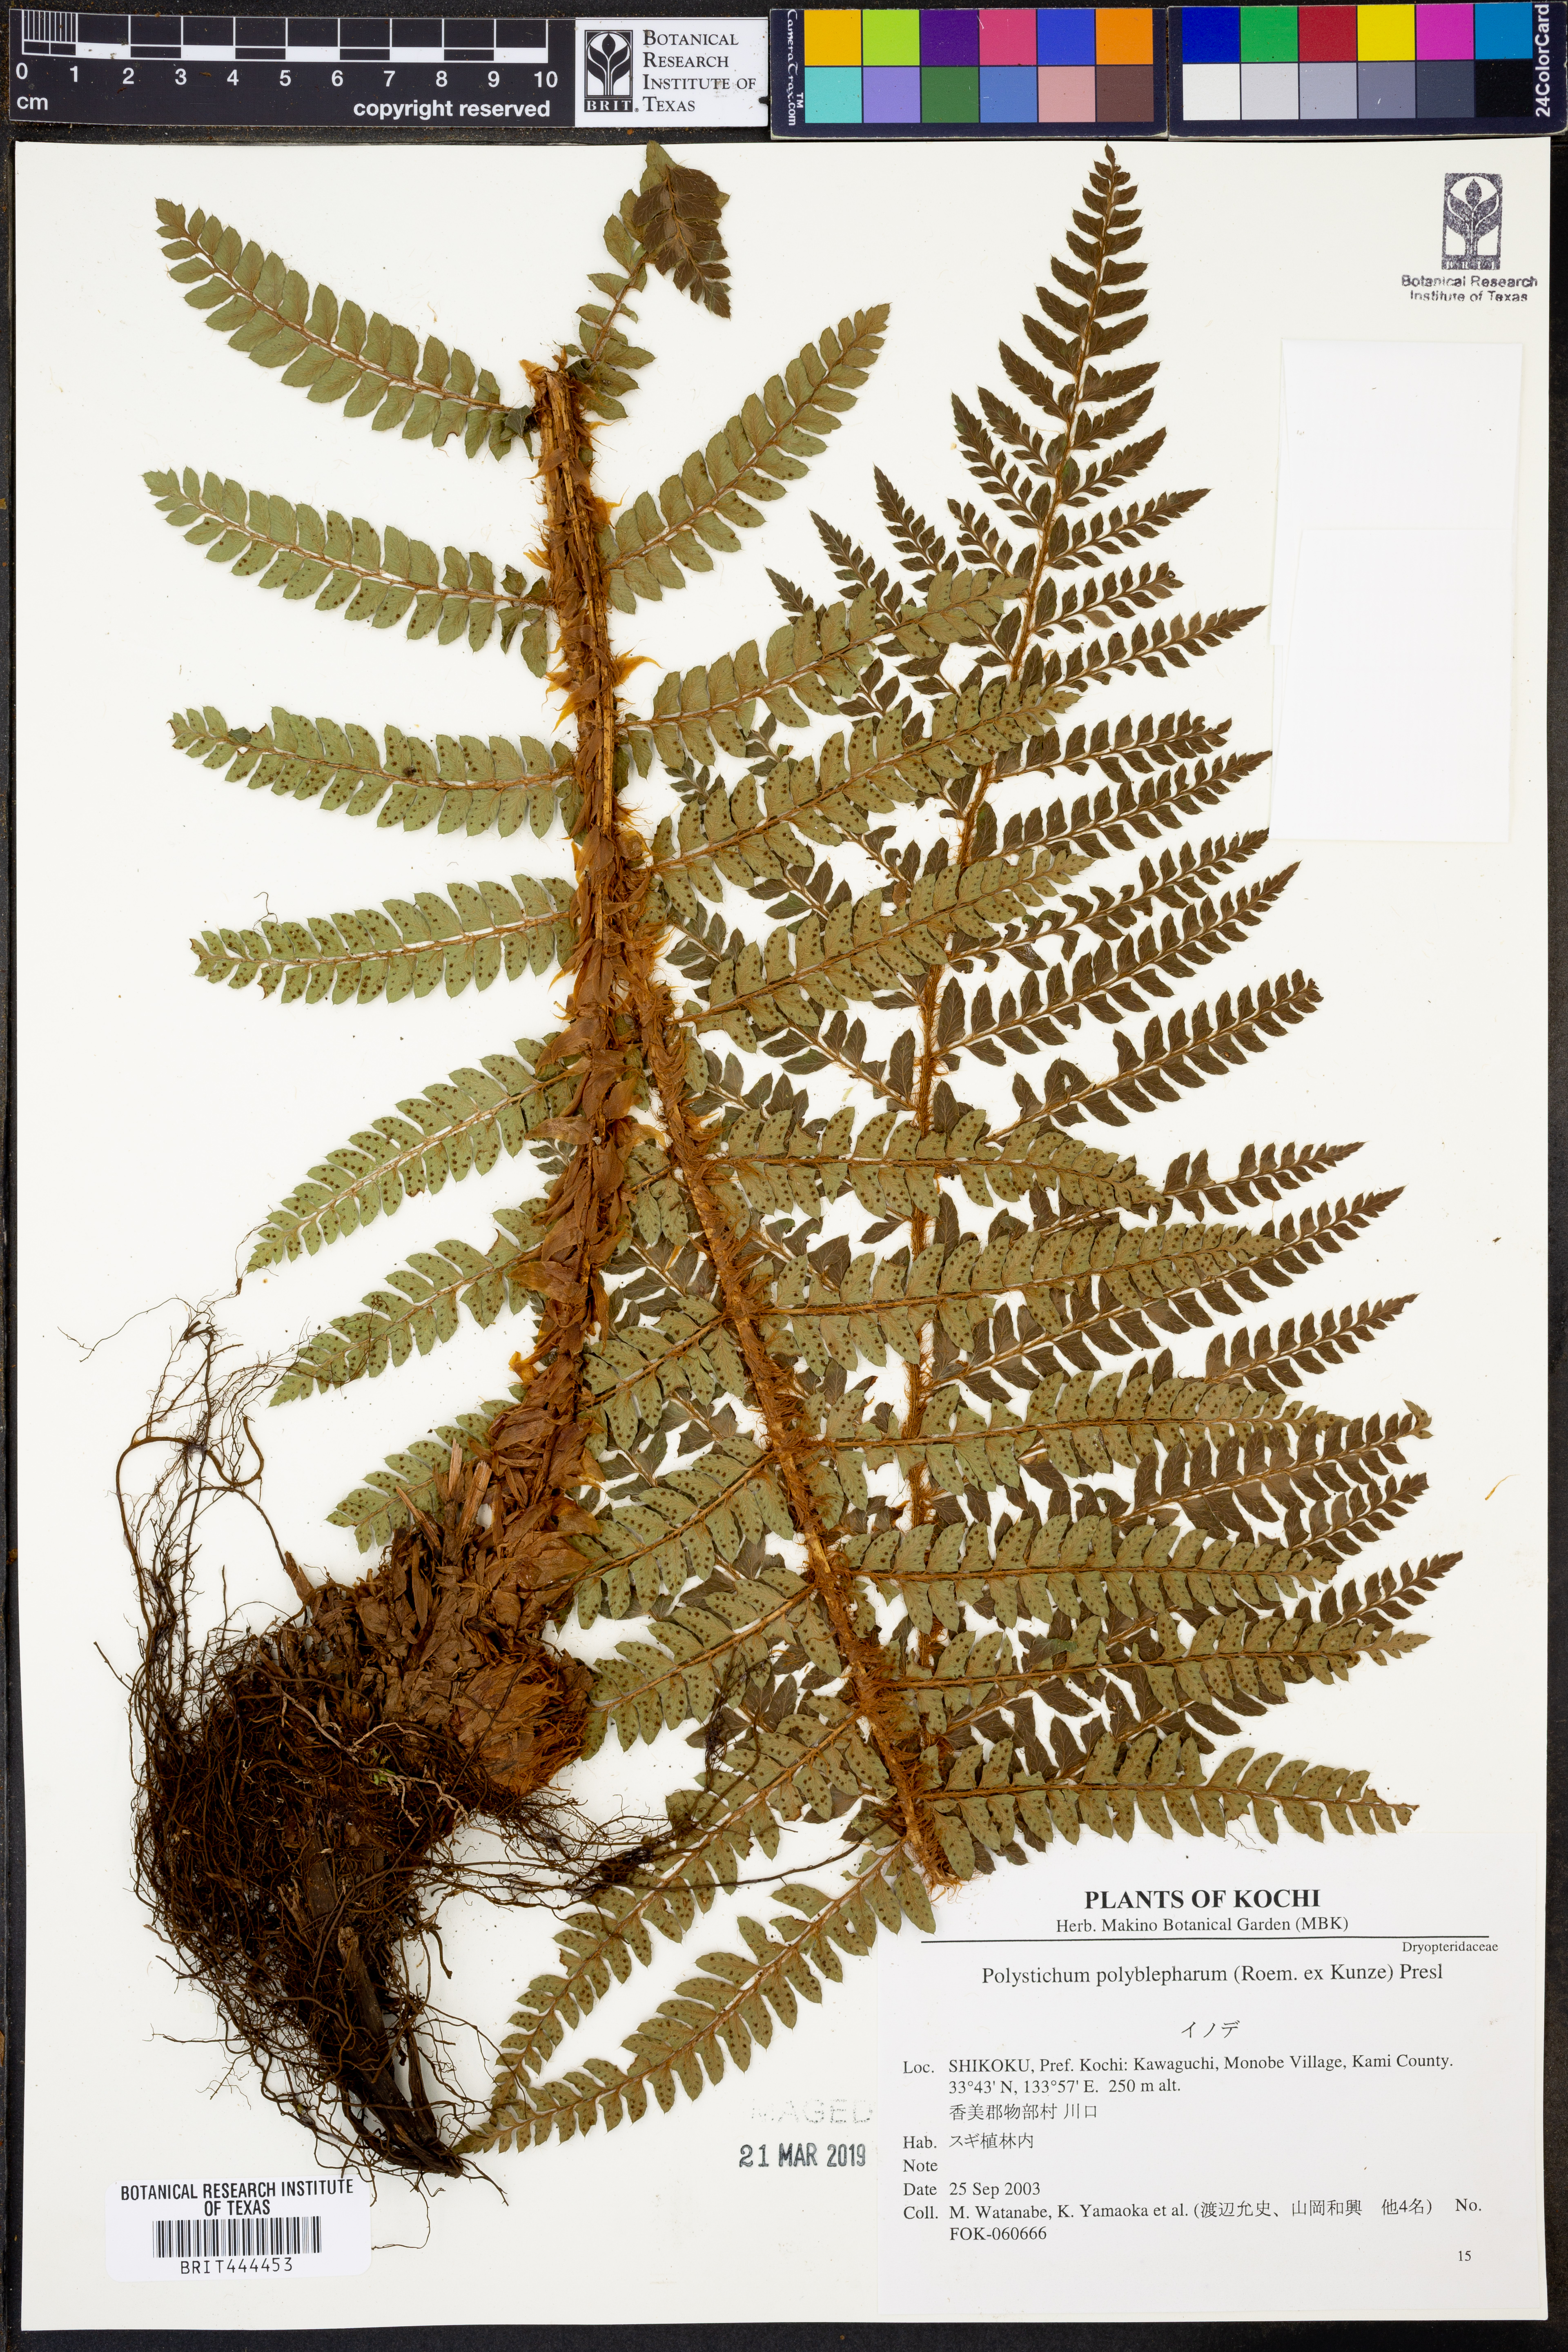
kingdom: Plantae
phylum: Tracheophyta
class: Polypodiopsida
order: Polypodiales
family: Dryopteridaceae
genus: Polystichum
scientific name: Polystichum polyblepharon
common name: Korean tasselfern
